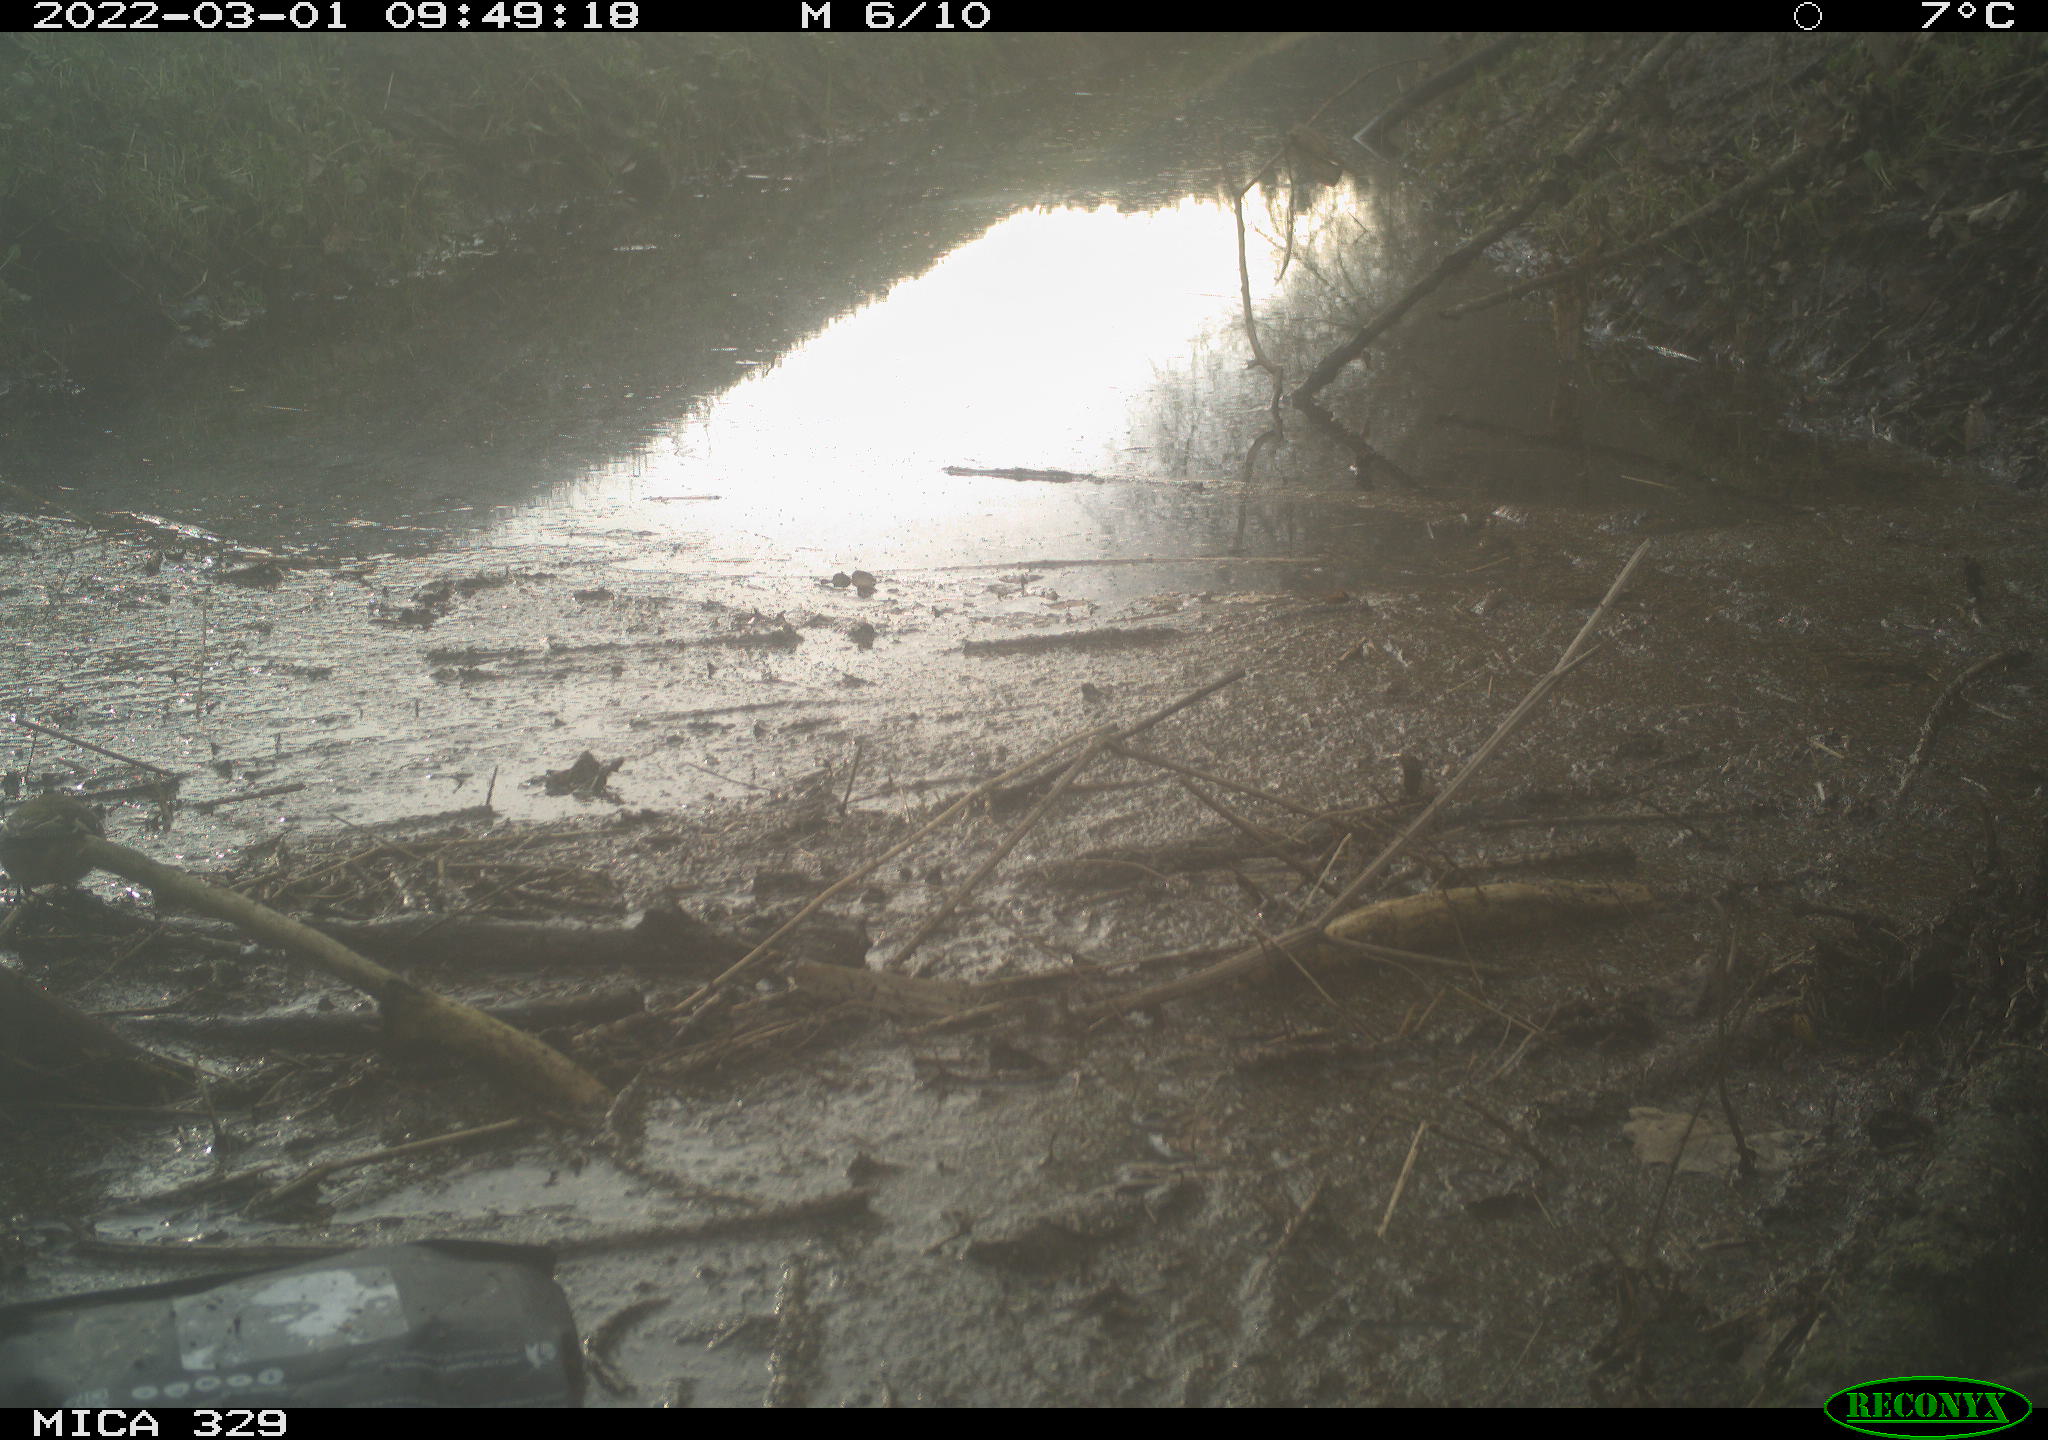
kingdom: Animalia
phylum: Chordata
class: Aves
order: Passeriformes
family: Troglodytidae
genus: Troglodytes
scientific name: Troglodytes troglodytes
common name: Eurasian wren
